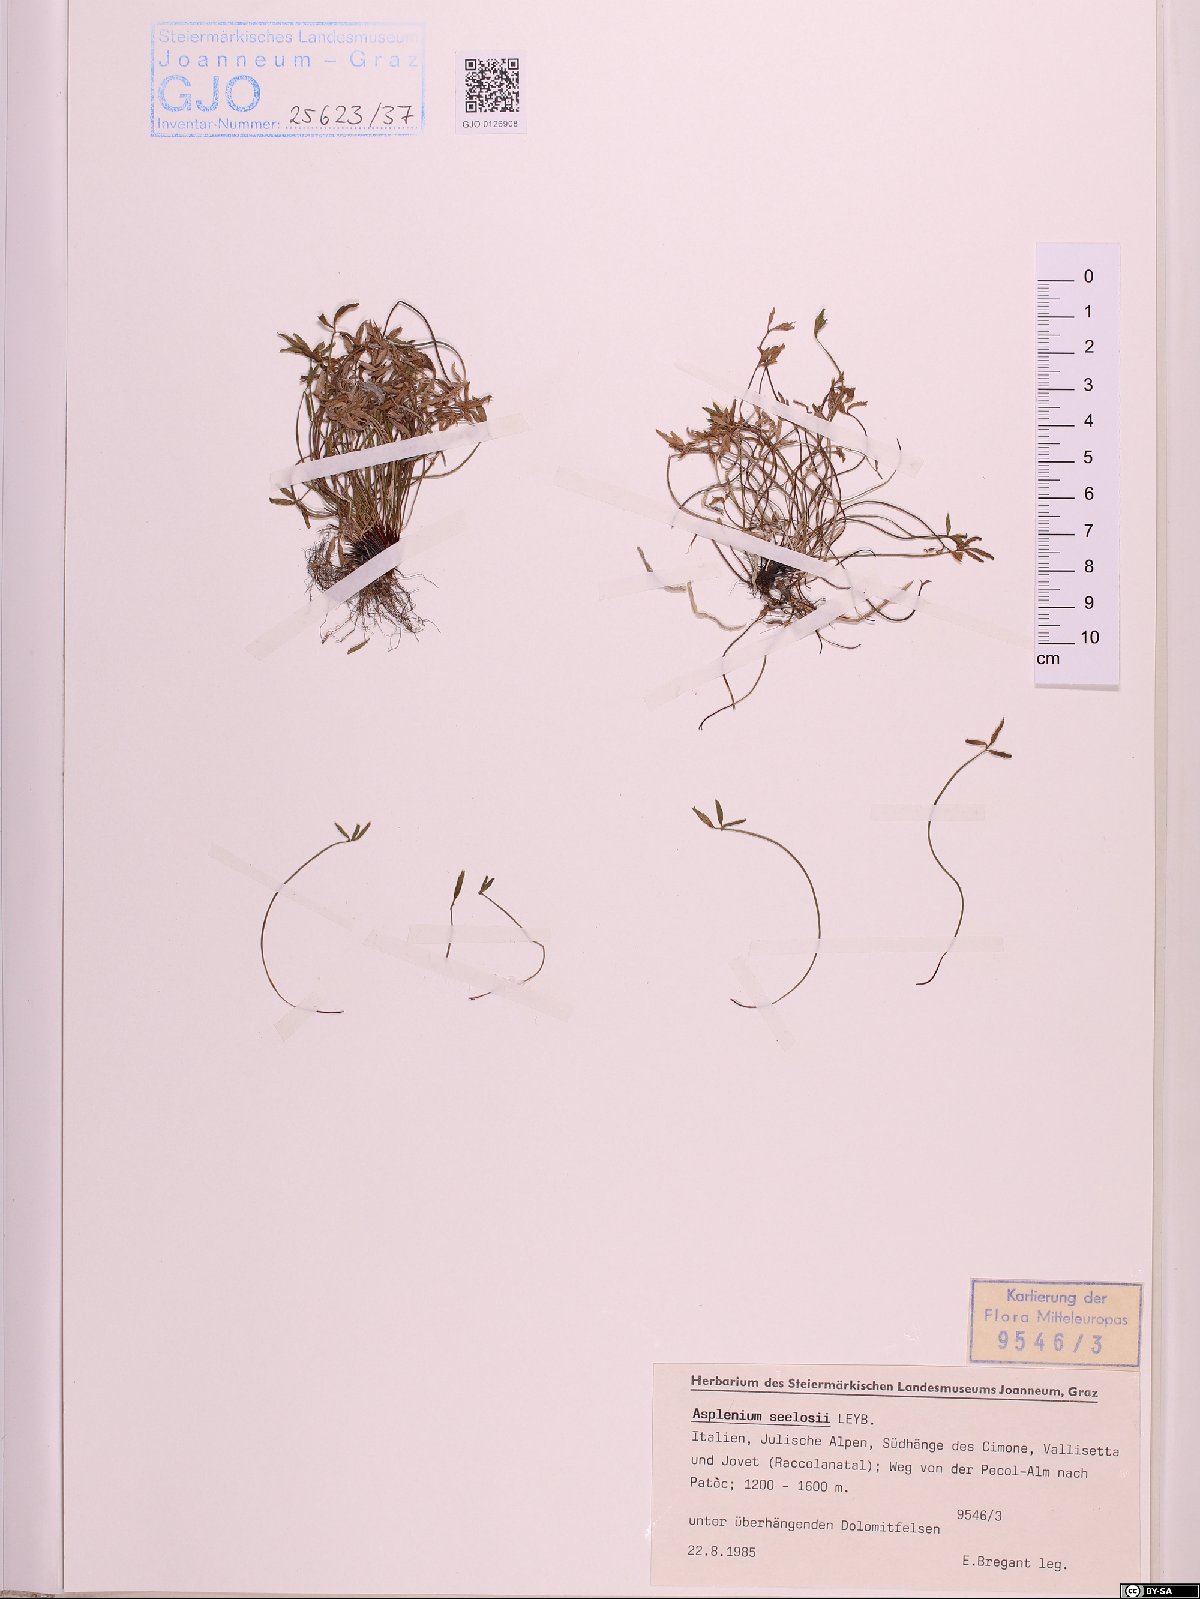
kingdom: Plantae
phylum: Tracheophyta
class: Polypodiopsida
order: Polypodiales
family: Aspleniaceae
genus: Asplenium
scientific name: Asplenium seelosii
